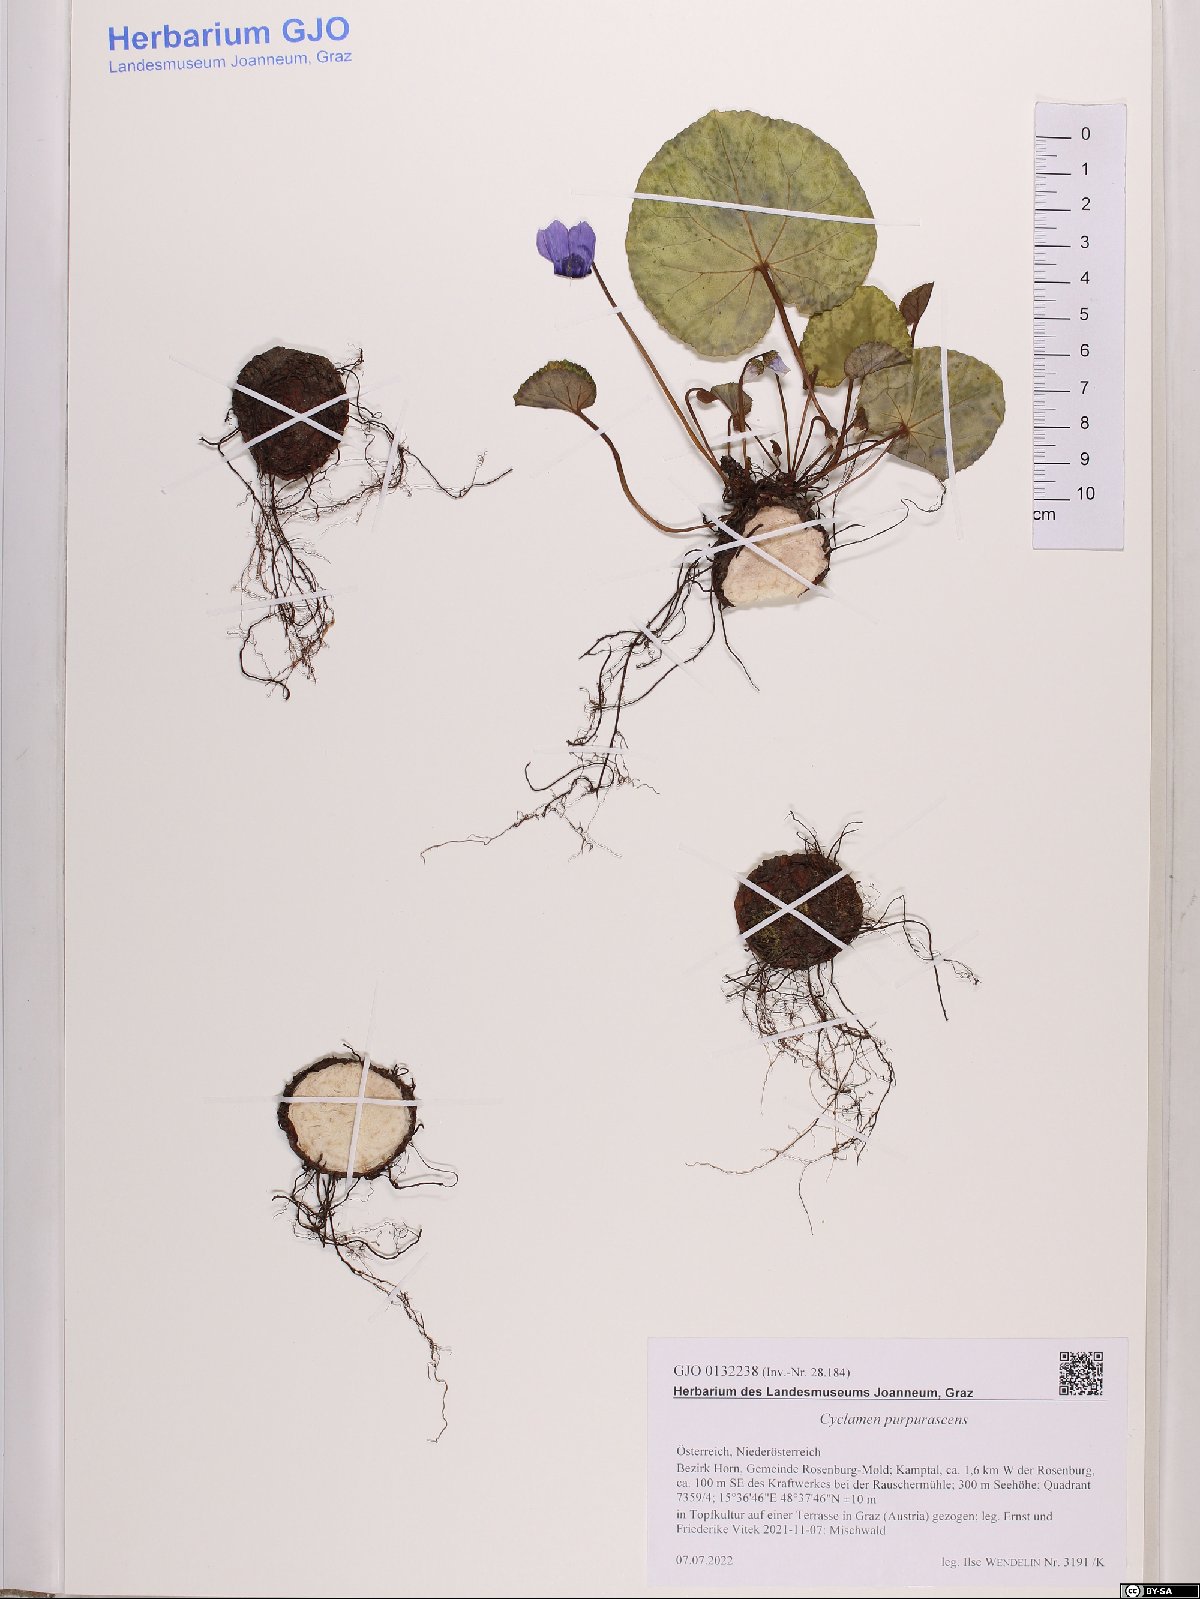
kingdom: Plantae
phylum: Tracheophyta
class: Magnoliopsida
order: Ericales
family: Primulaceae
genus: Cyclamen
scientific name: Cyclamen purpurascens
